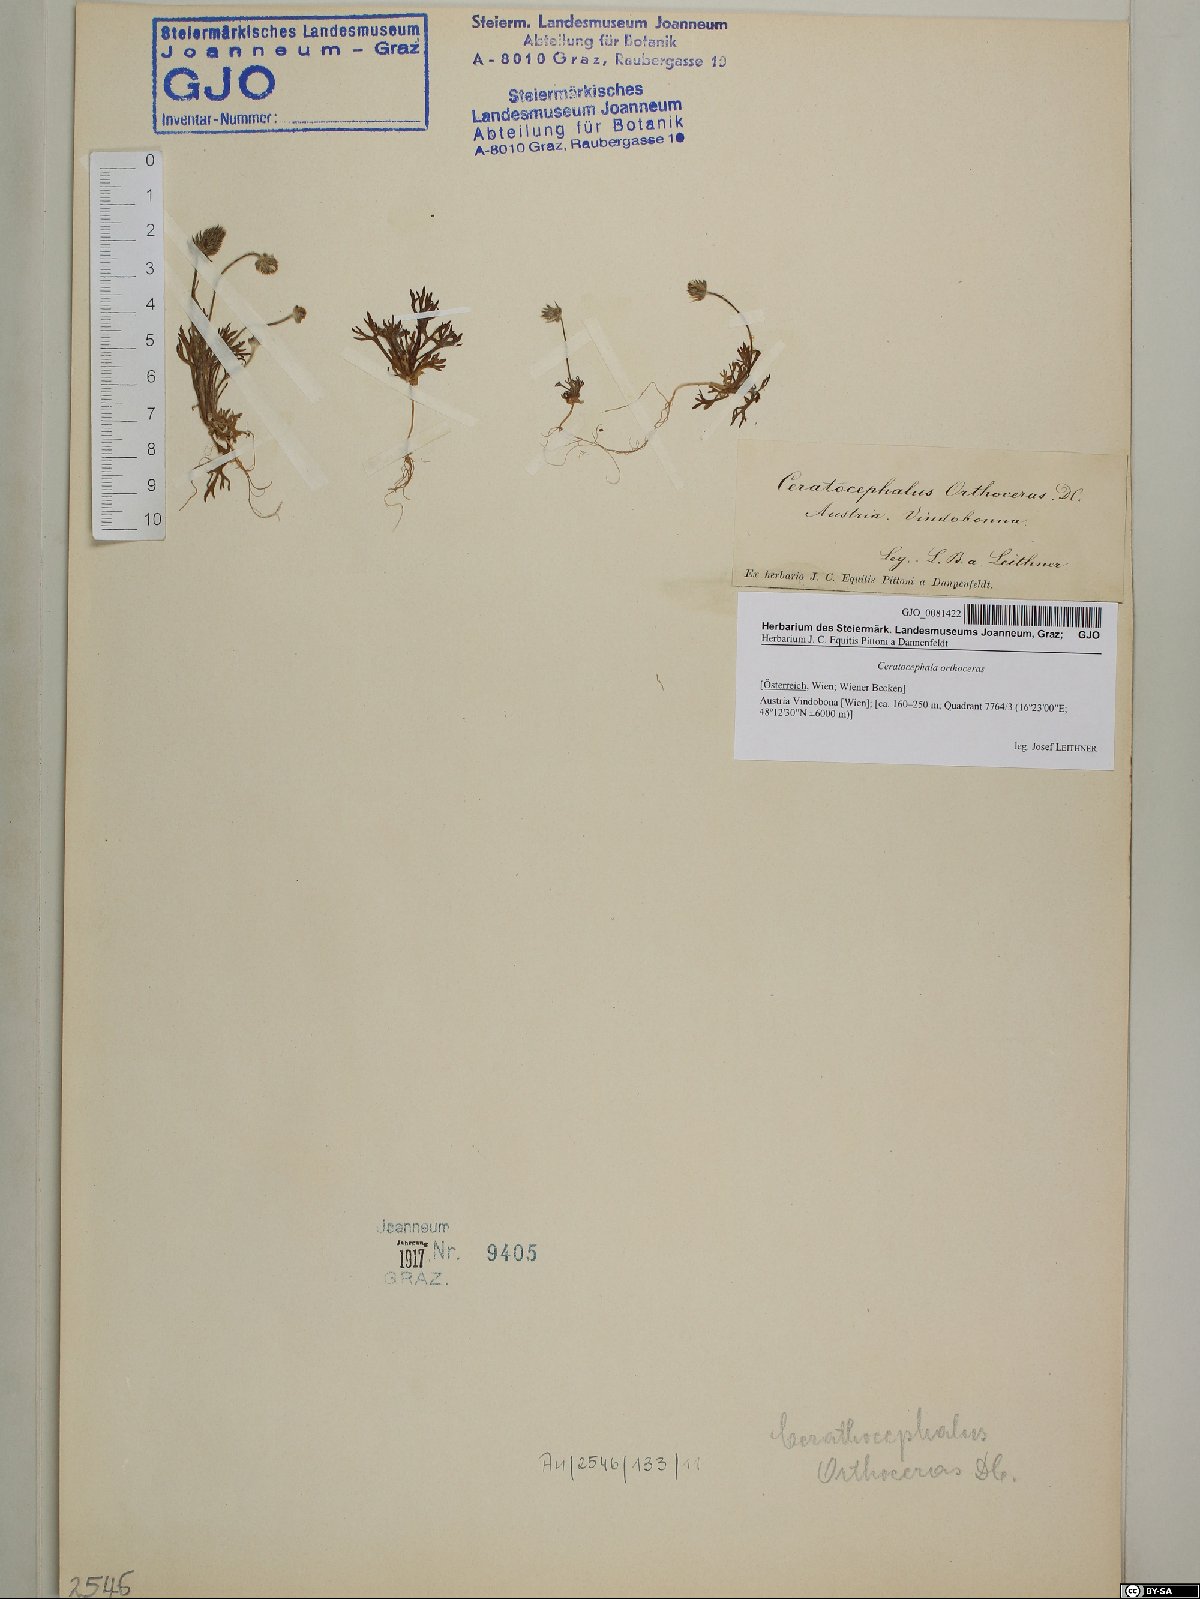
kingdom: Plantae
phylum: Tracheophyta
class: Magnoliopsida
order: Ranunculales
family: Ranunculaceae
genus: Ceratocephala
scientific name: Ceratocephala orthoceras
